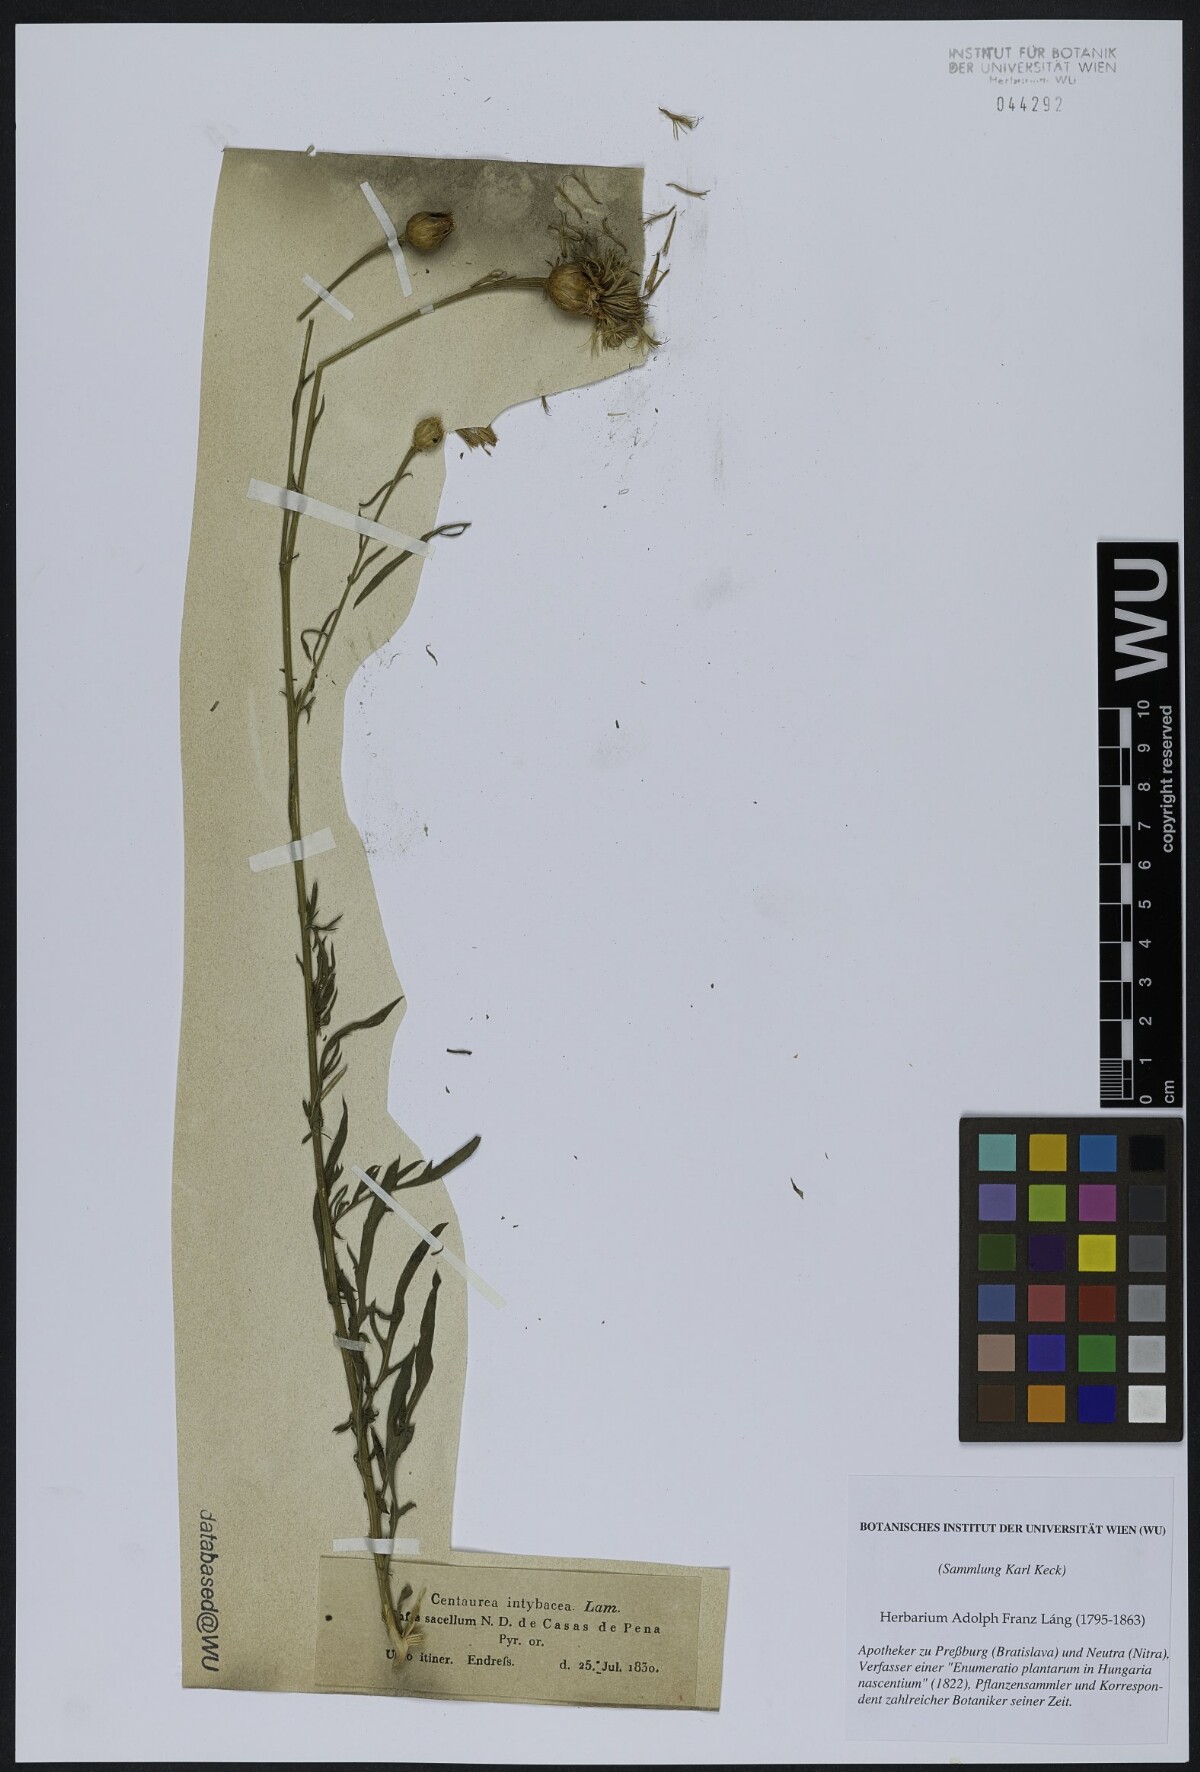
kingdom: Plantae
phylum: Tracheophyta
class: Magnoliopsida
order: Asterales
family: Asteraceae
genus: Cheirolophus
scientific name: Cheirolophus intybaceus
